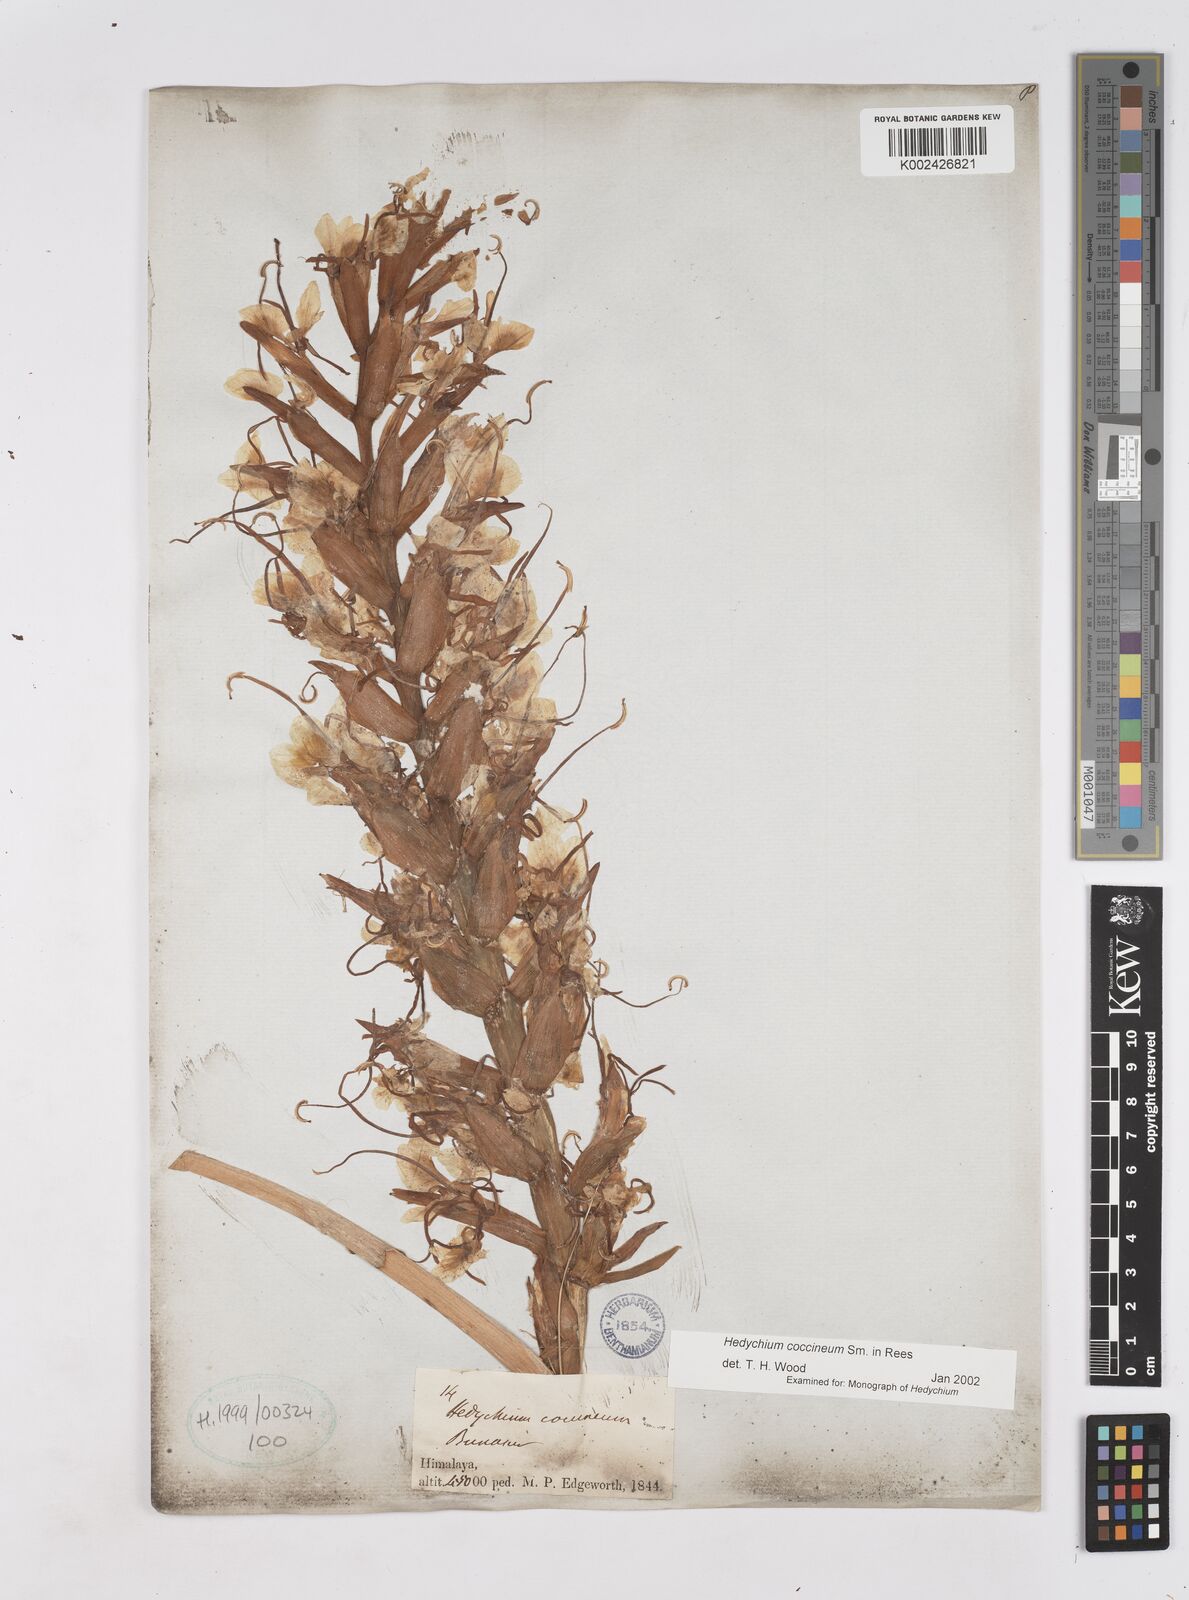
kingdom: Plantae
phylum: Tracheophyta
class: Liliopsida
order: Zingiberales
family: Zingiberaceae
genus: Hedychium
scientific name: Hedychium coccineum
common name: Red ginger-lily
